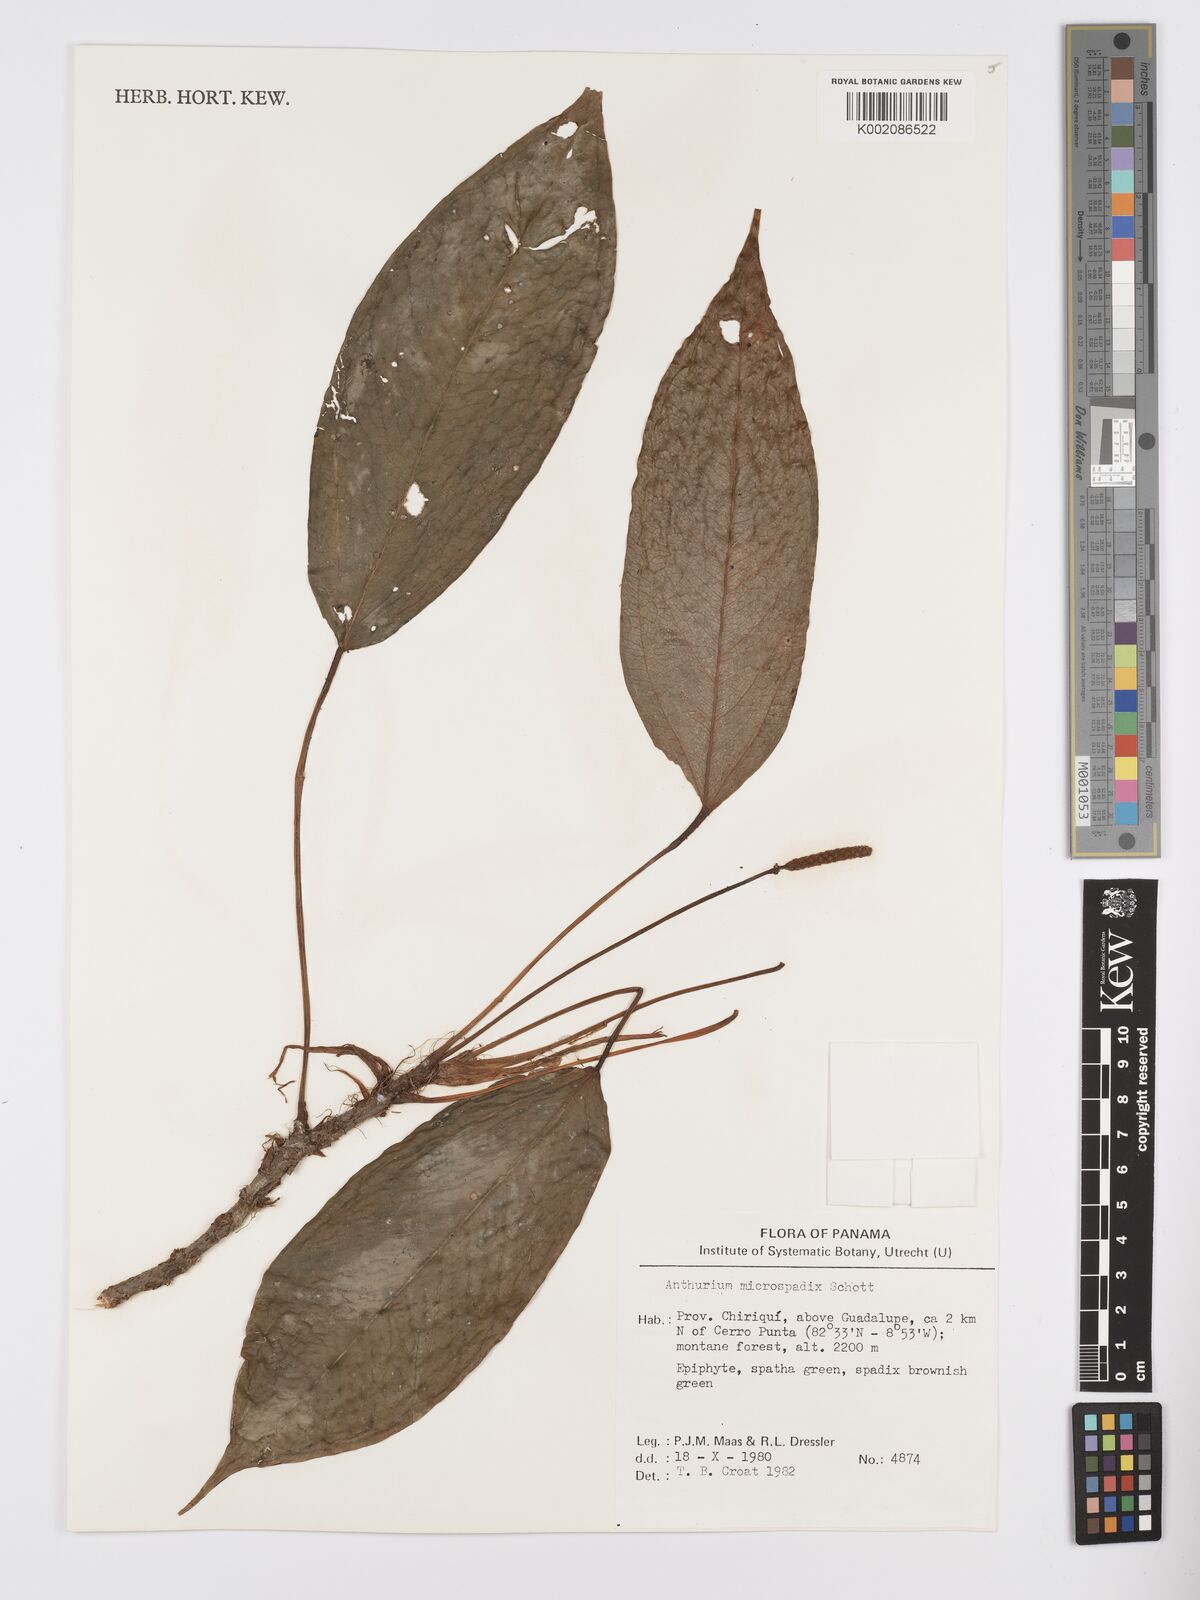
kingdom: Plantae
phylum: Tracheophyta
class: Liliopsida
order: Alismatales
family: Araceae
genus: Anthurium
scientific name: Anthurium microspadix
